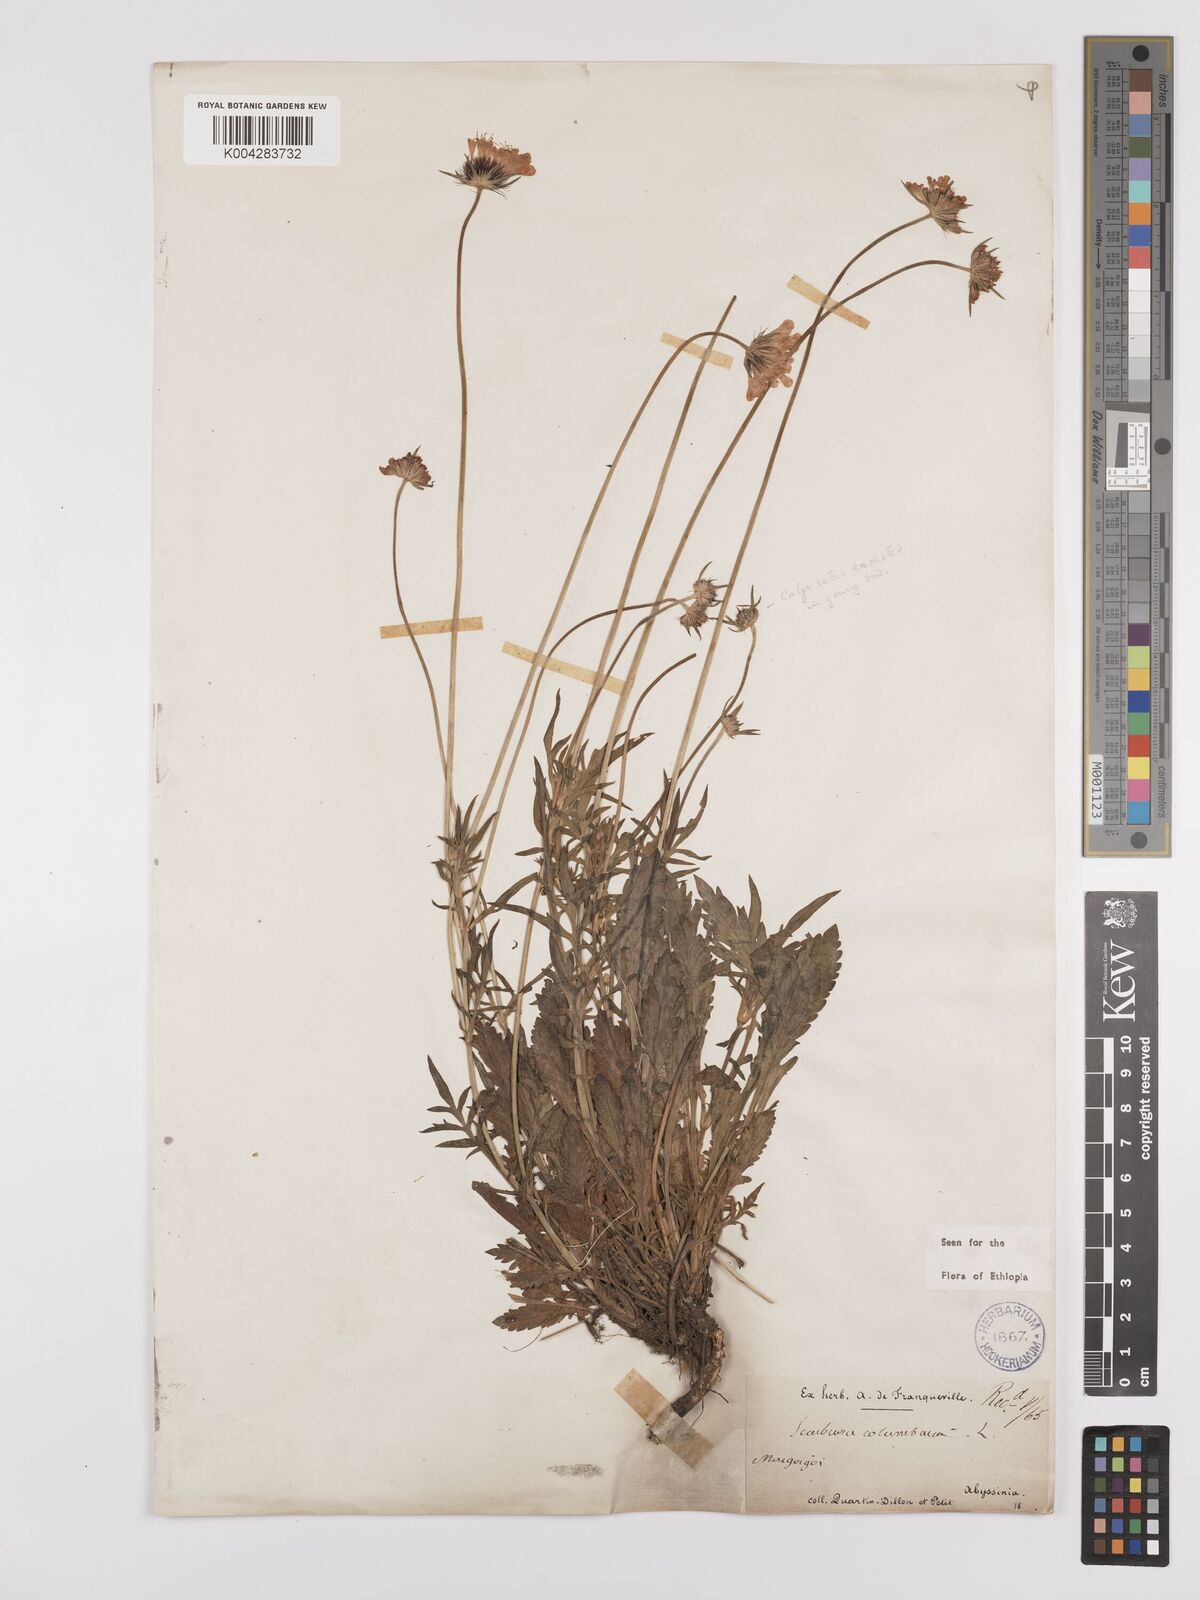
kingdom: Plantae
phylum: Tracheophyta
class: Magnoliopsida
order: Dipsacales
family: Caprifoliaceae
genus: Scabiosa
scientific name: Scabiosa columbaria
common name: Small scabious
